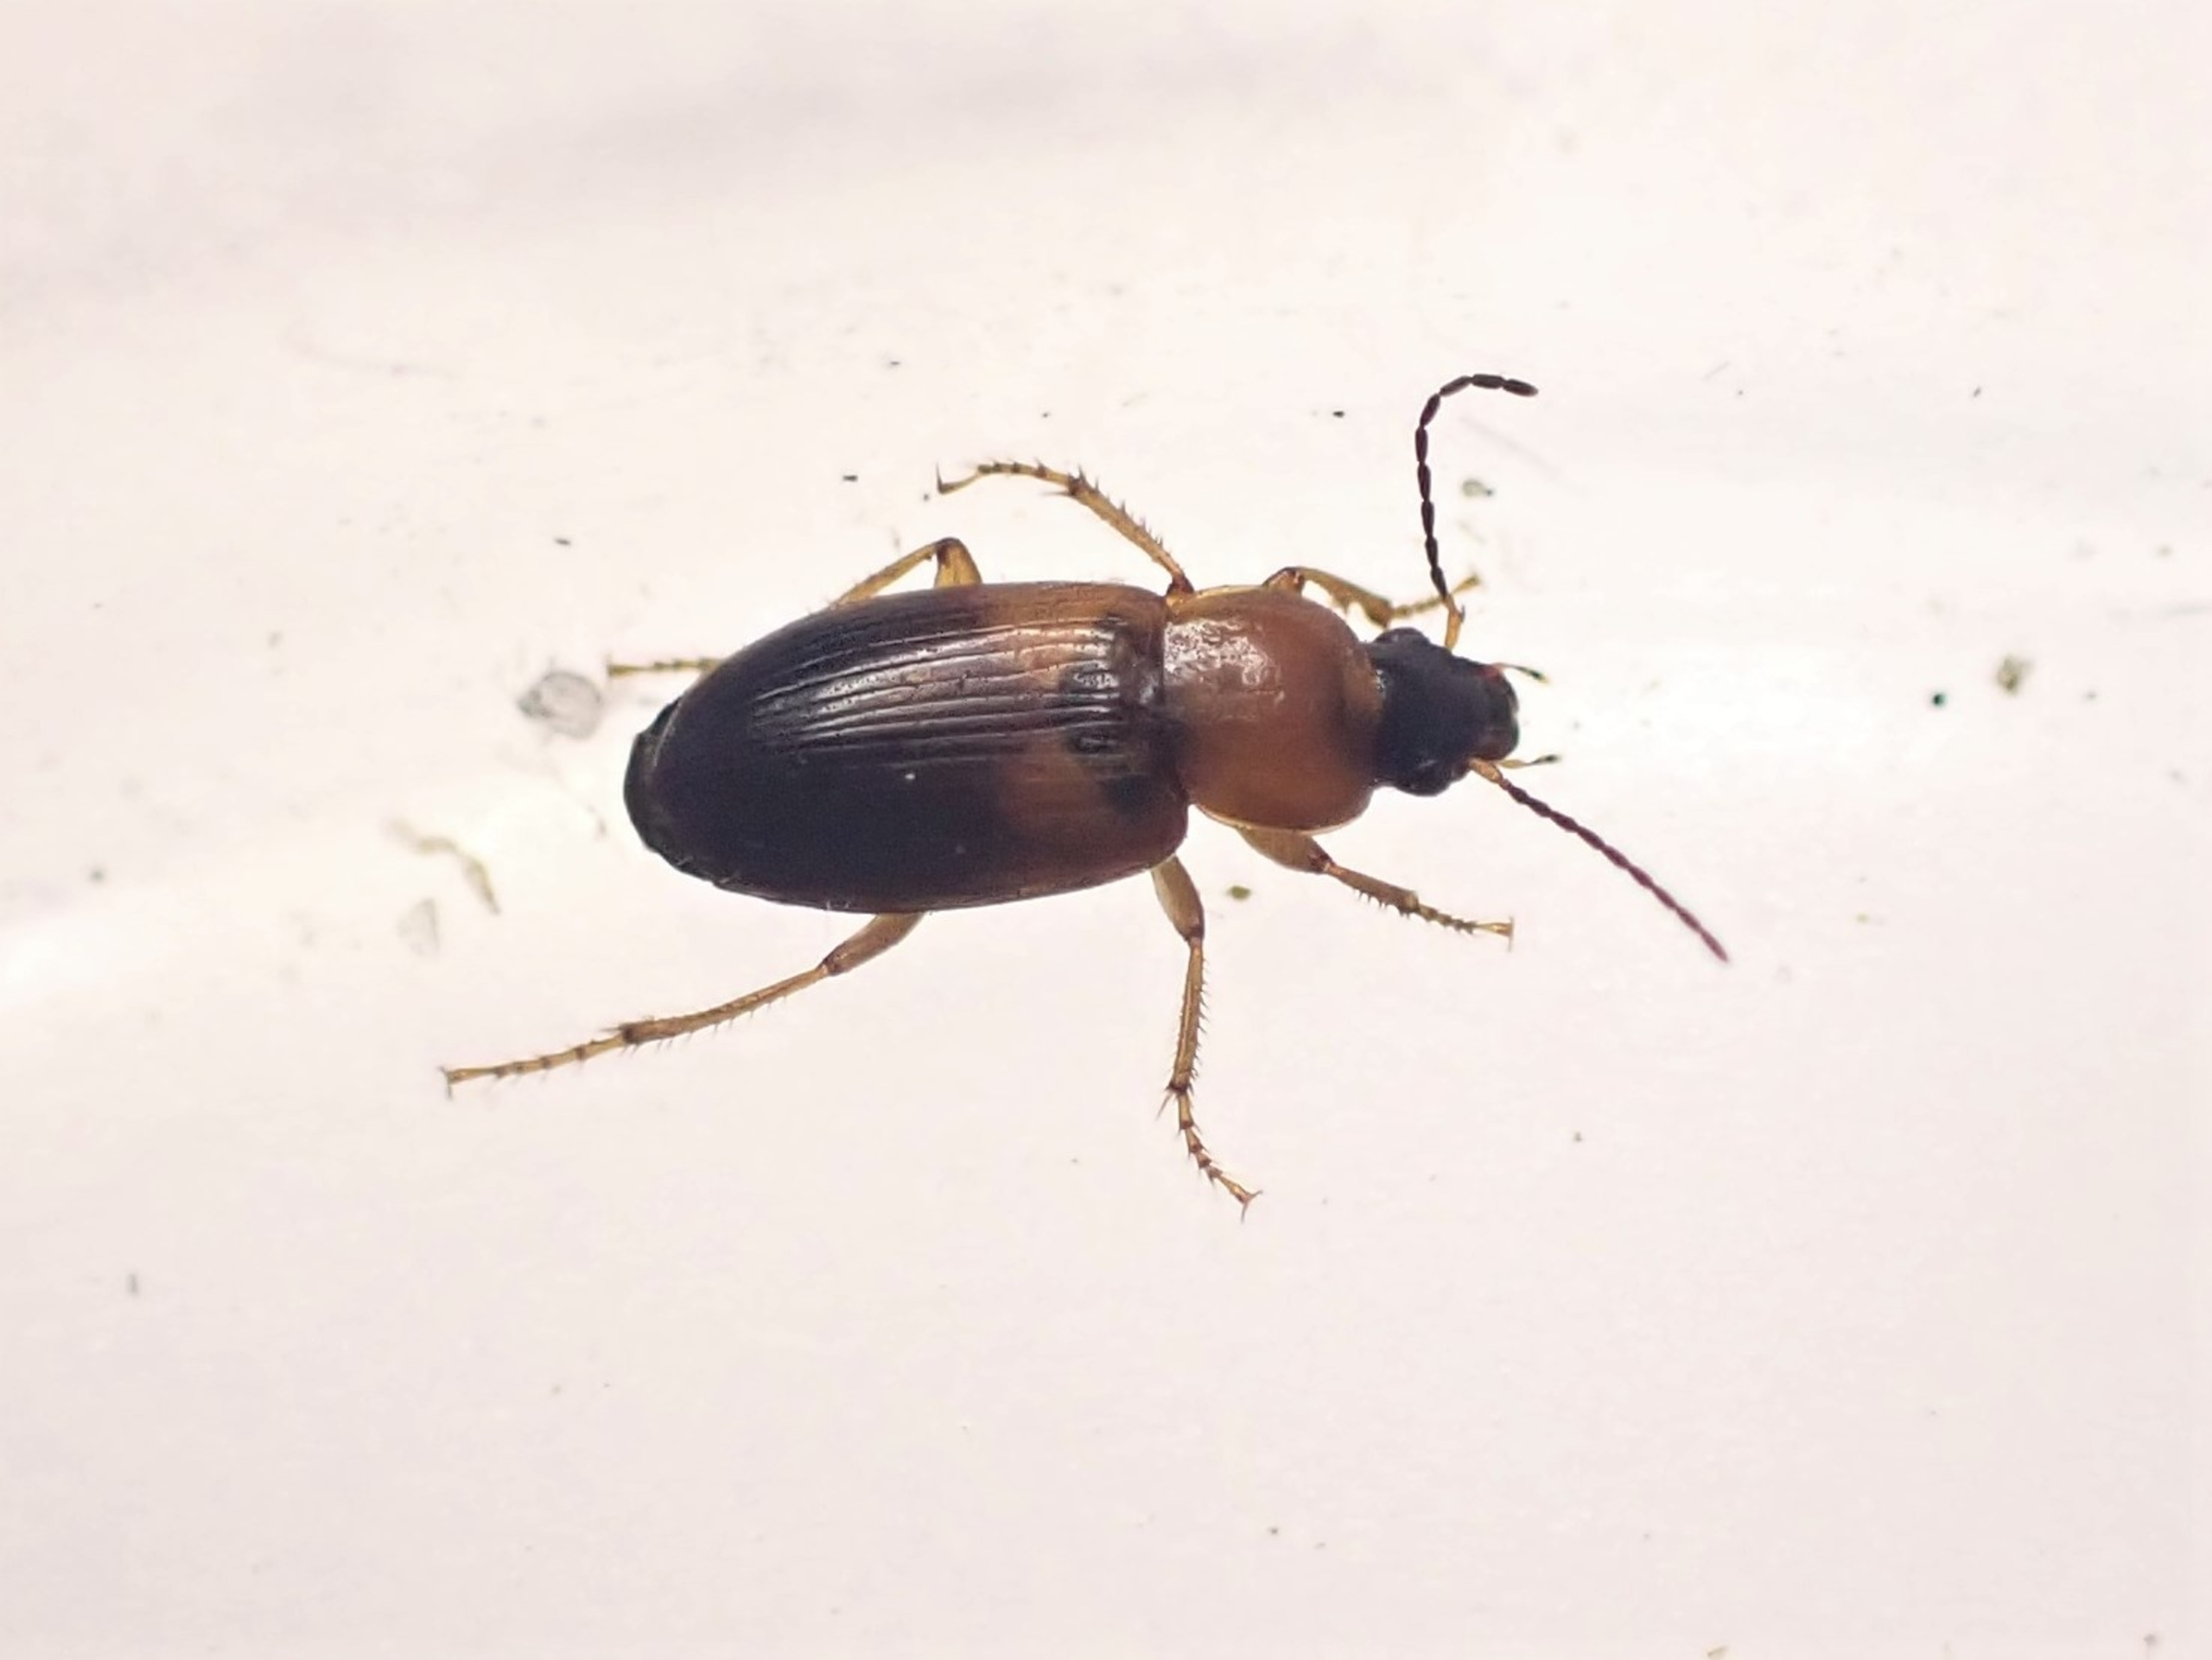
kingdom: Animalia
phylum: Arthropoda
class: Insecta
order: Coleoptera
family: Carabidae
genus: Stenolophus
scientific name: Stenolophus teutonus
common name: Spraglet damløber
